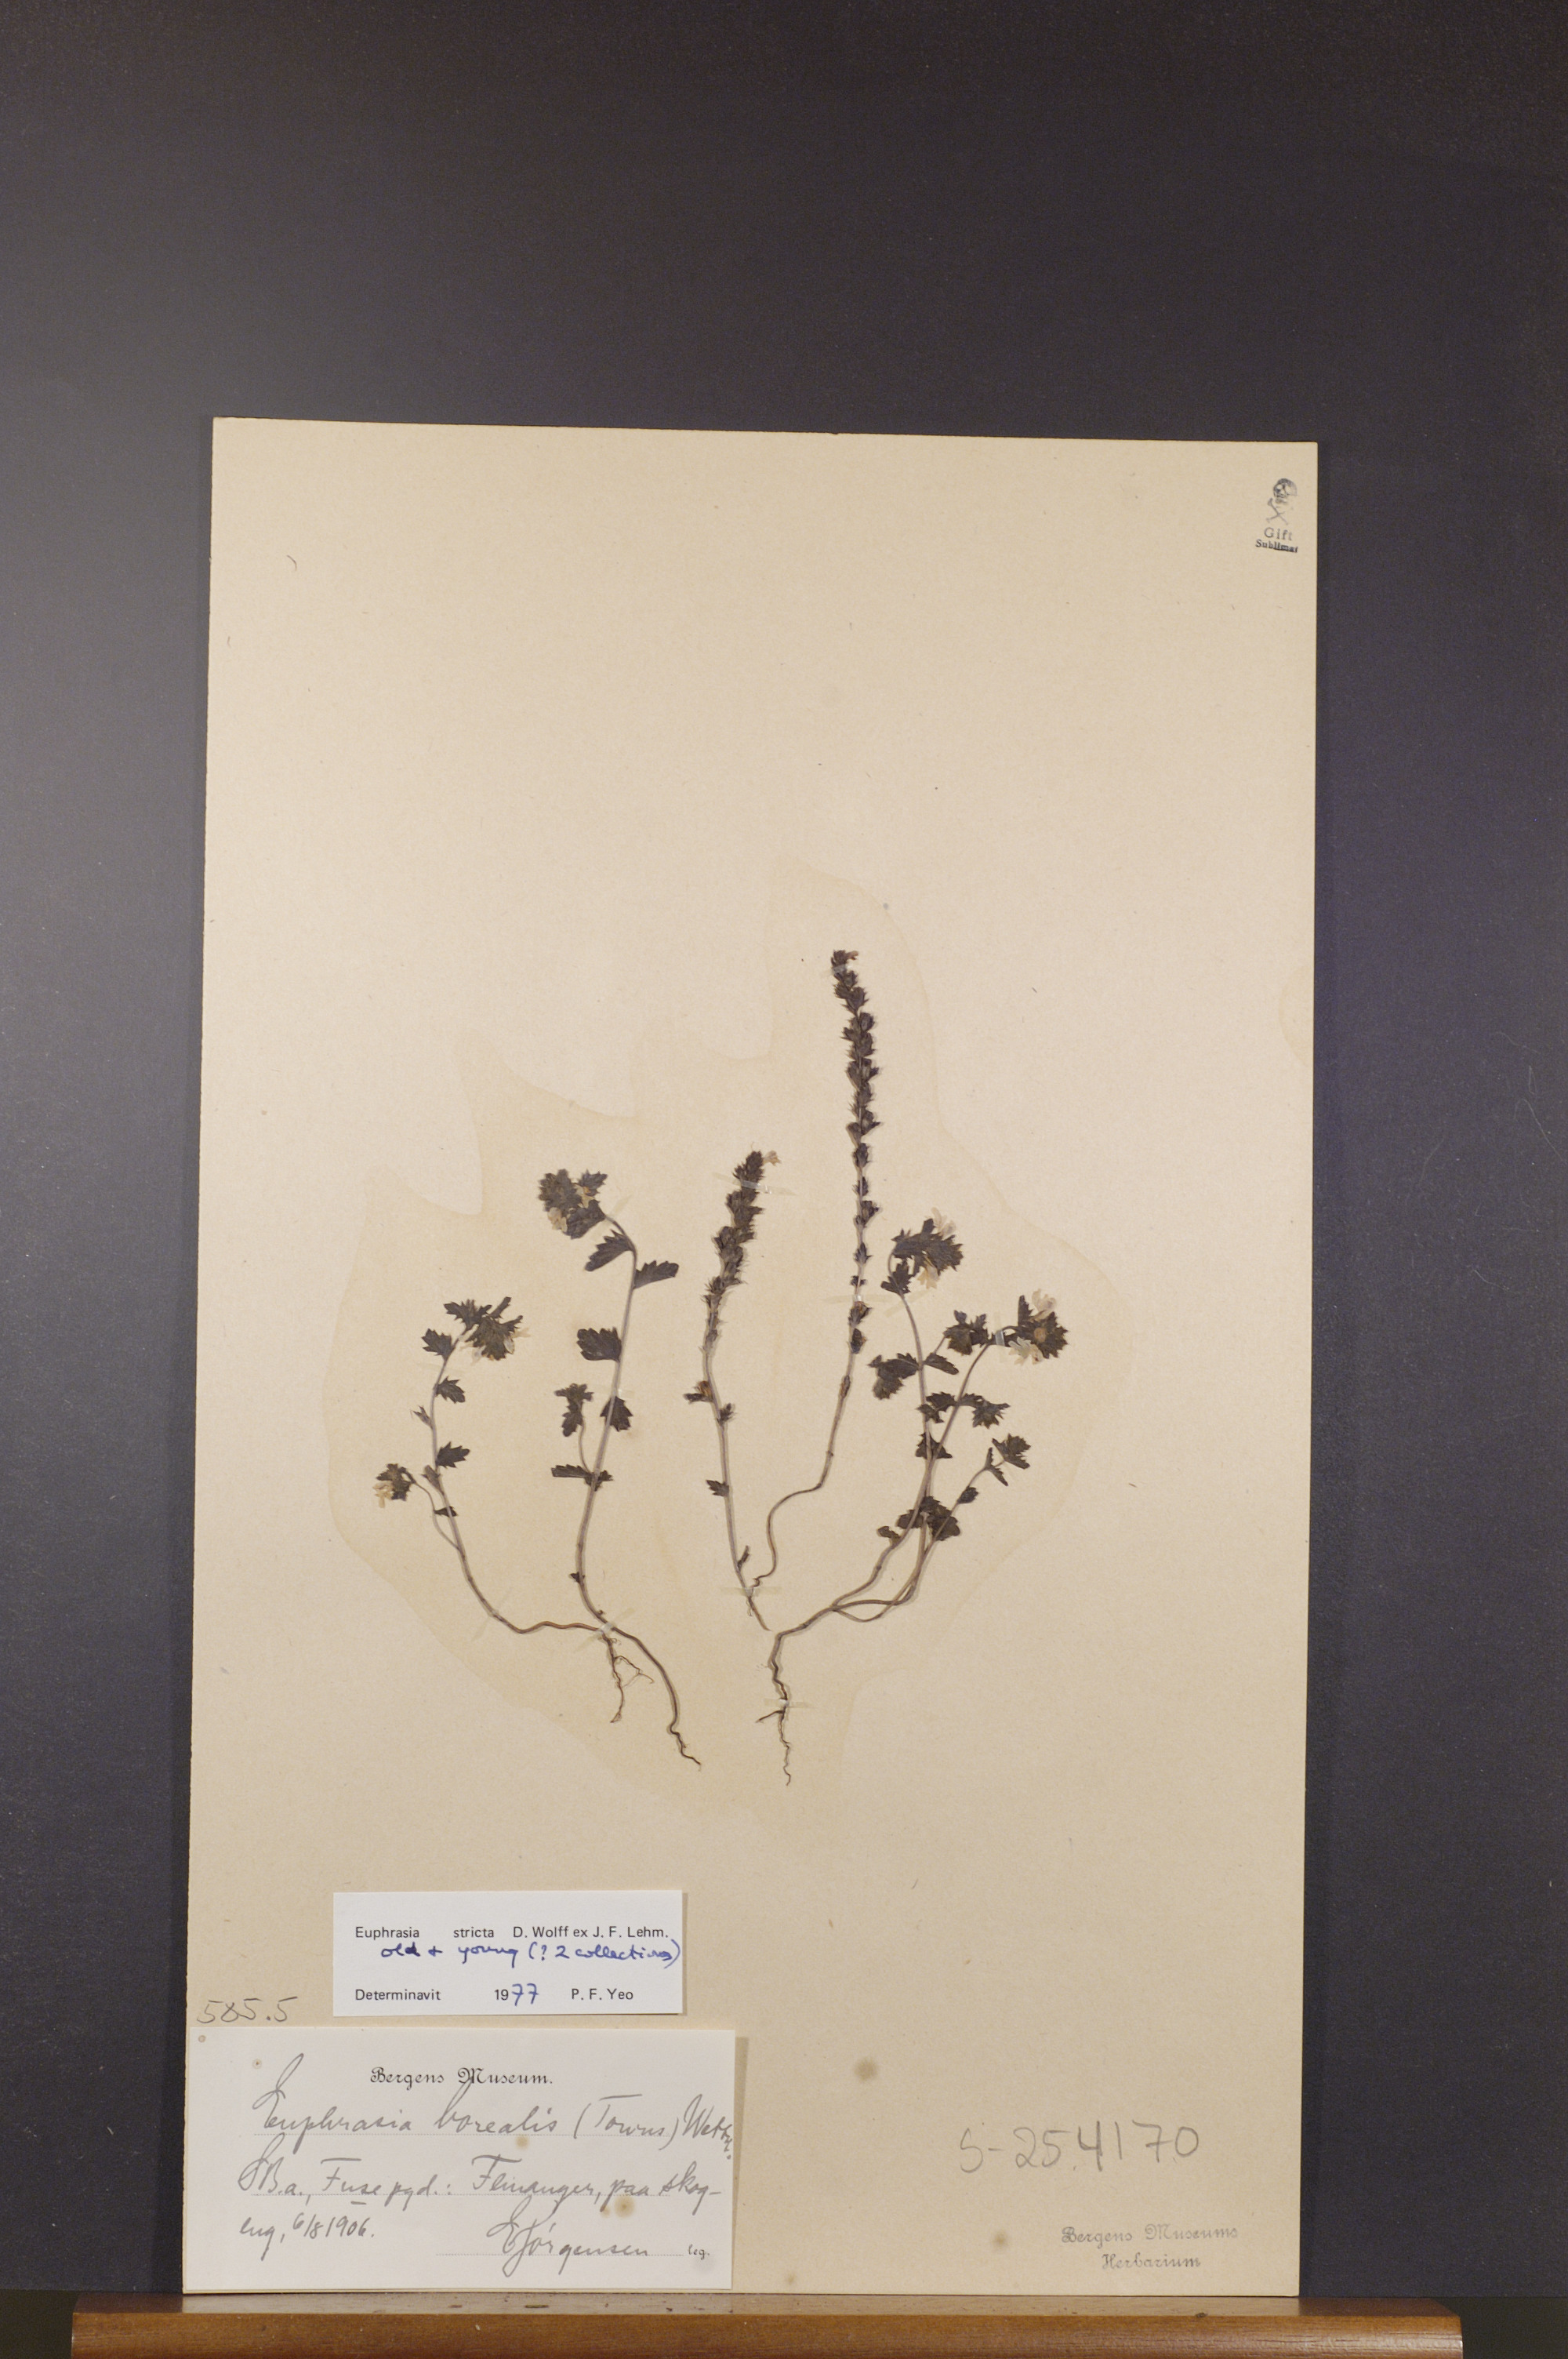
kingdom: Plantae
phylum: Tracheophyta
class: Magnoliopsida
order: Lamiales
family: Orobanchaceae
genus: Euphrasia
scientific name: Euphrasia stricta
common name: Drug eyebright
